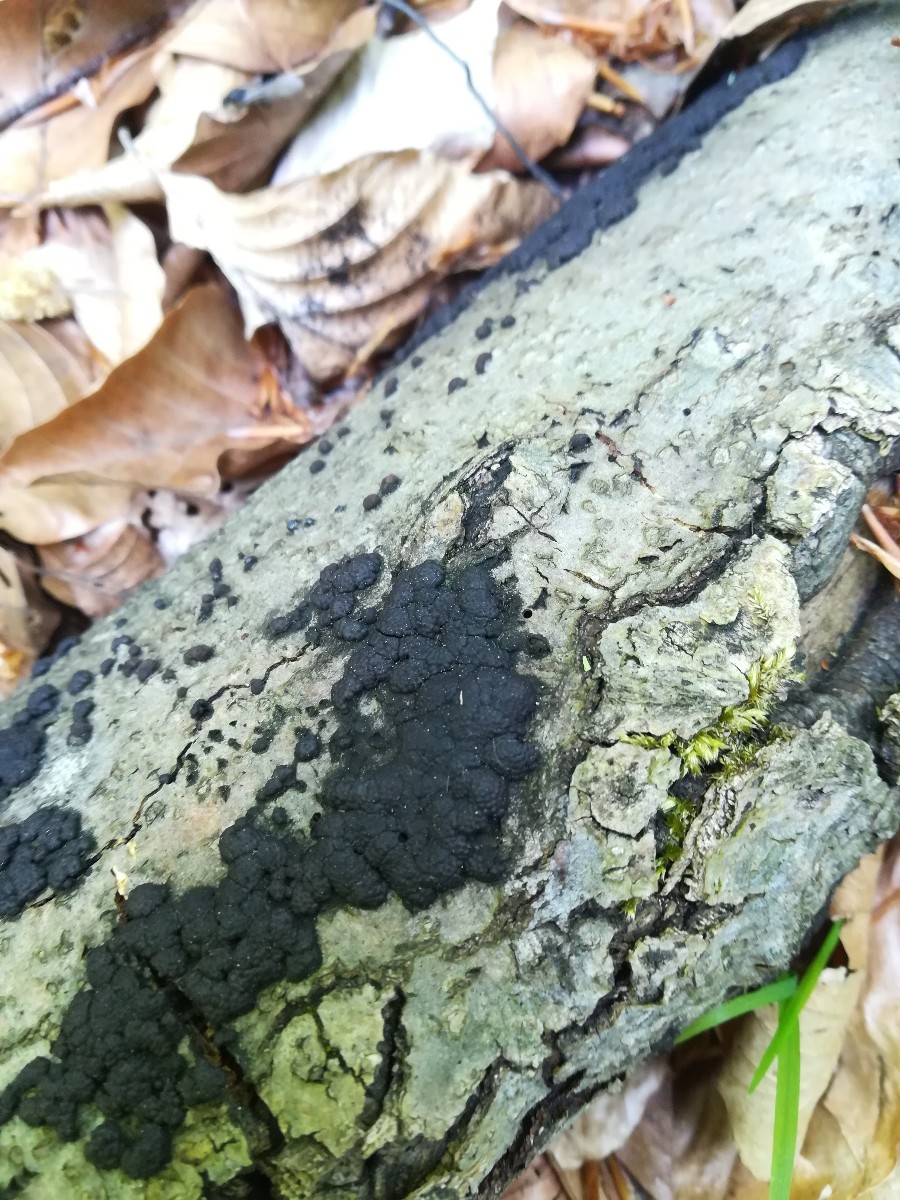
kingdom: Fungi
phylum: Ascomycota
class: Sordariomycetes
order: Xylariales
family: Hypoxylaceae
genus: Jackrogersella
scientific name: Jackrogersella cohaerens
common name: sammenflydende kulbær
